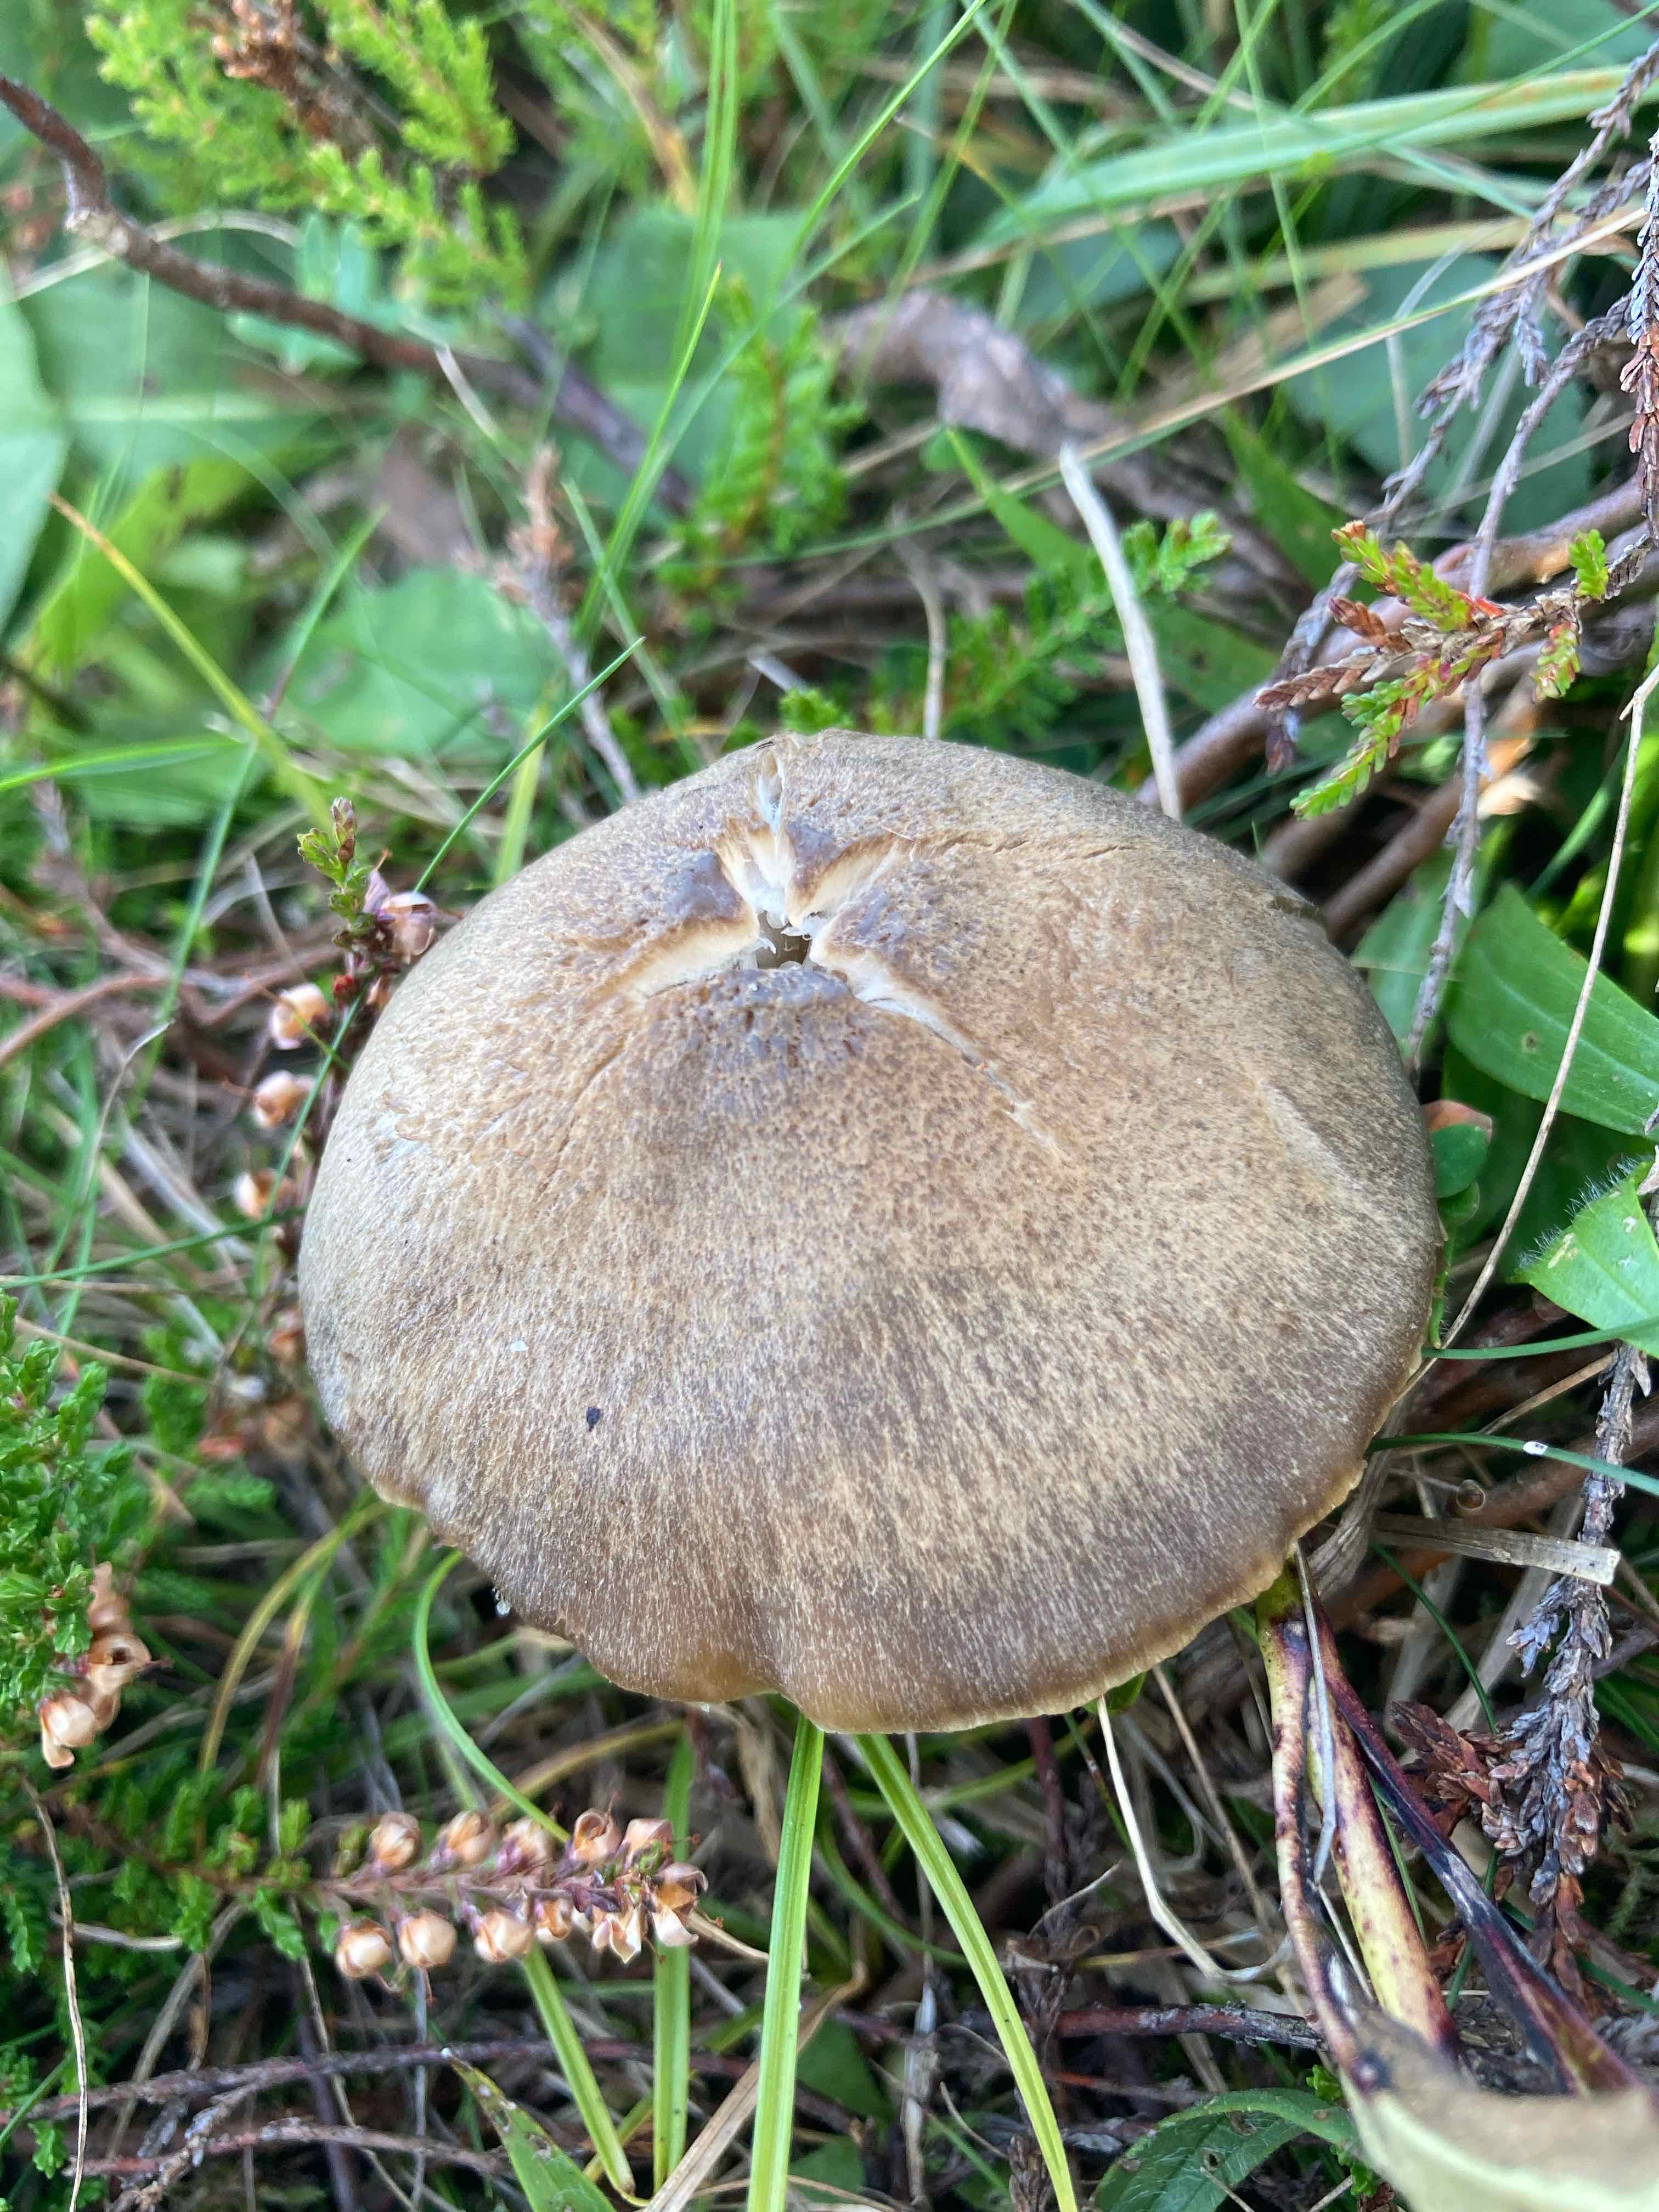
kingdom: Fungi
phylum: Basidiomycota
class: Agaricomycetes
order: Agaricales
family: Hygrophoraceae
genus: Neohygrocybe
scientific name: Neohygrocybe nitrata
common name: stinkende vokshat
